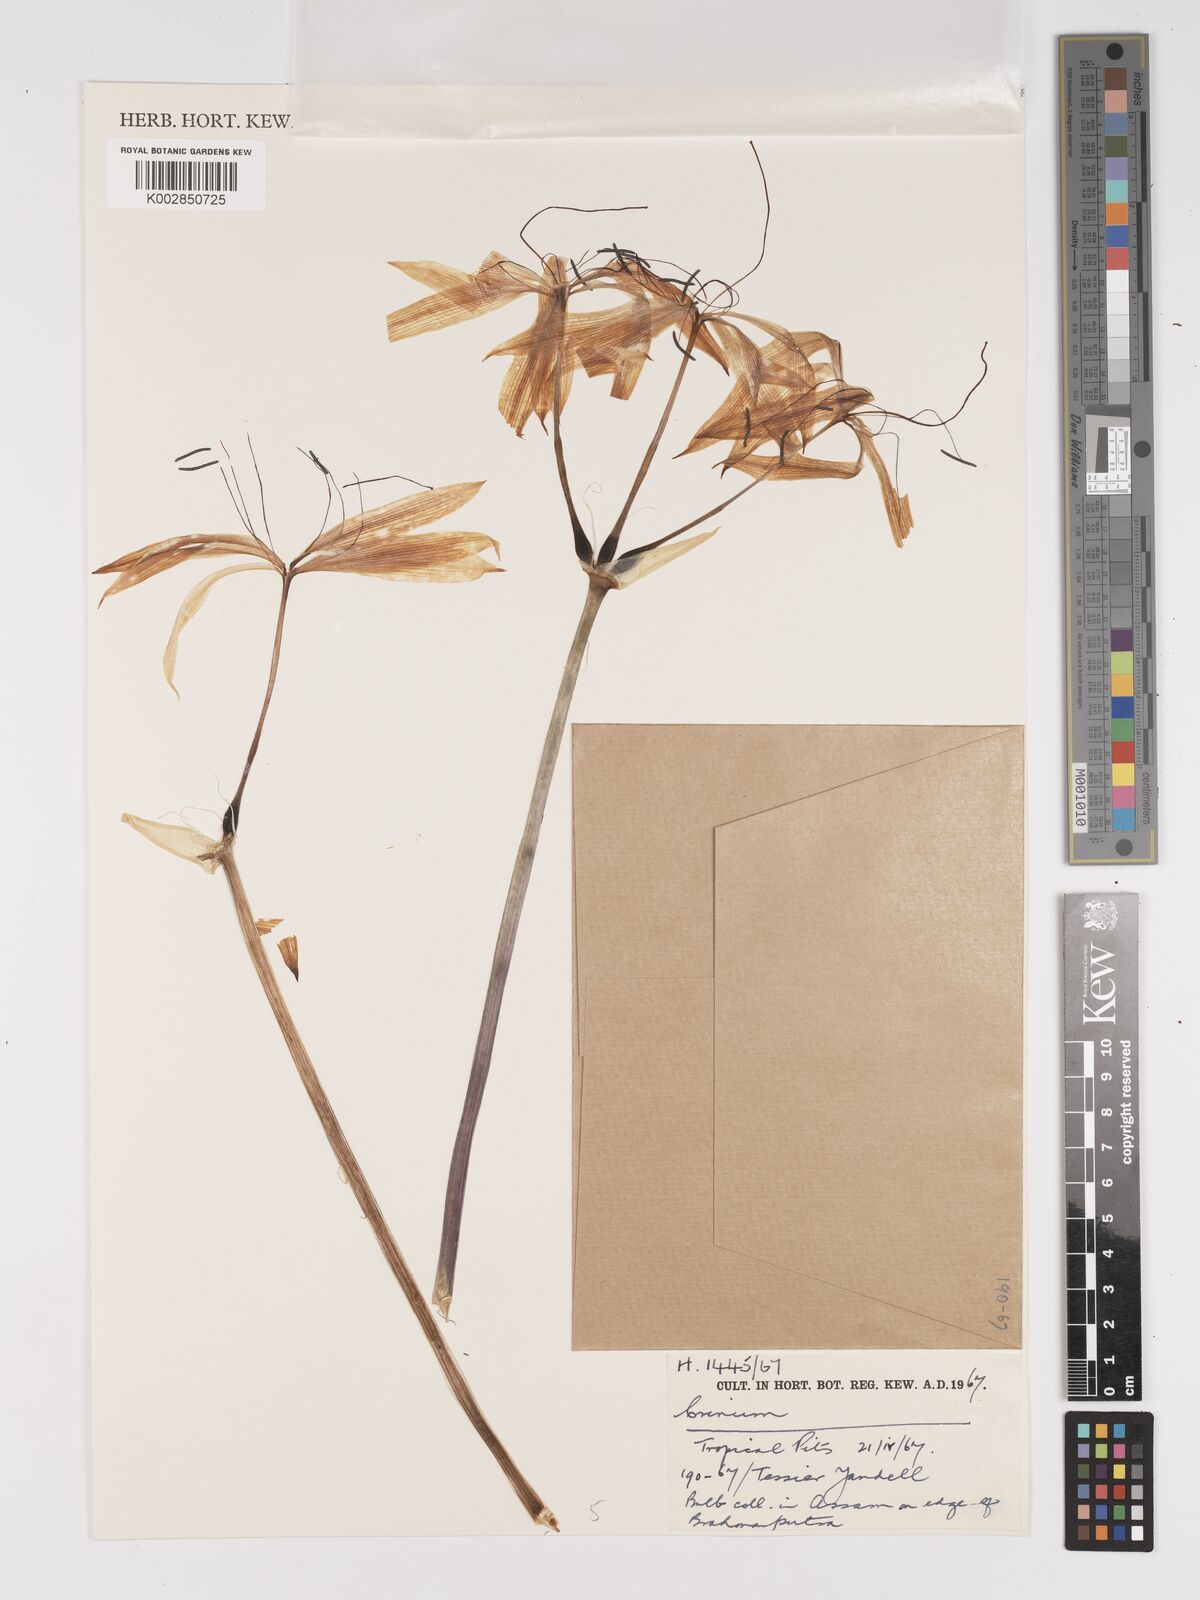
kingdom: Plantae
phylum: Tracheophyta
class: Liliopsida
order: Asparagales
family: Amaryllidaceae
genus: Crinum
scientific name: Crinum
